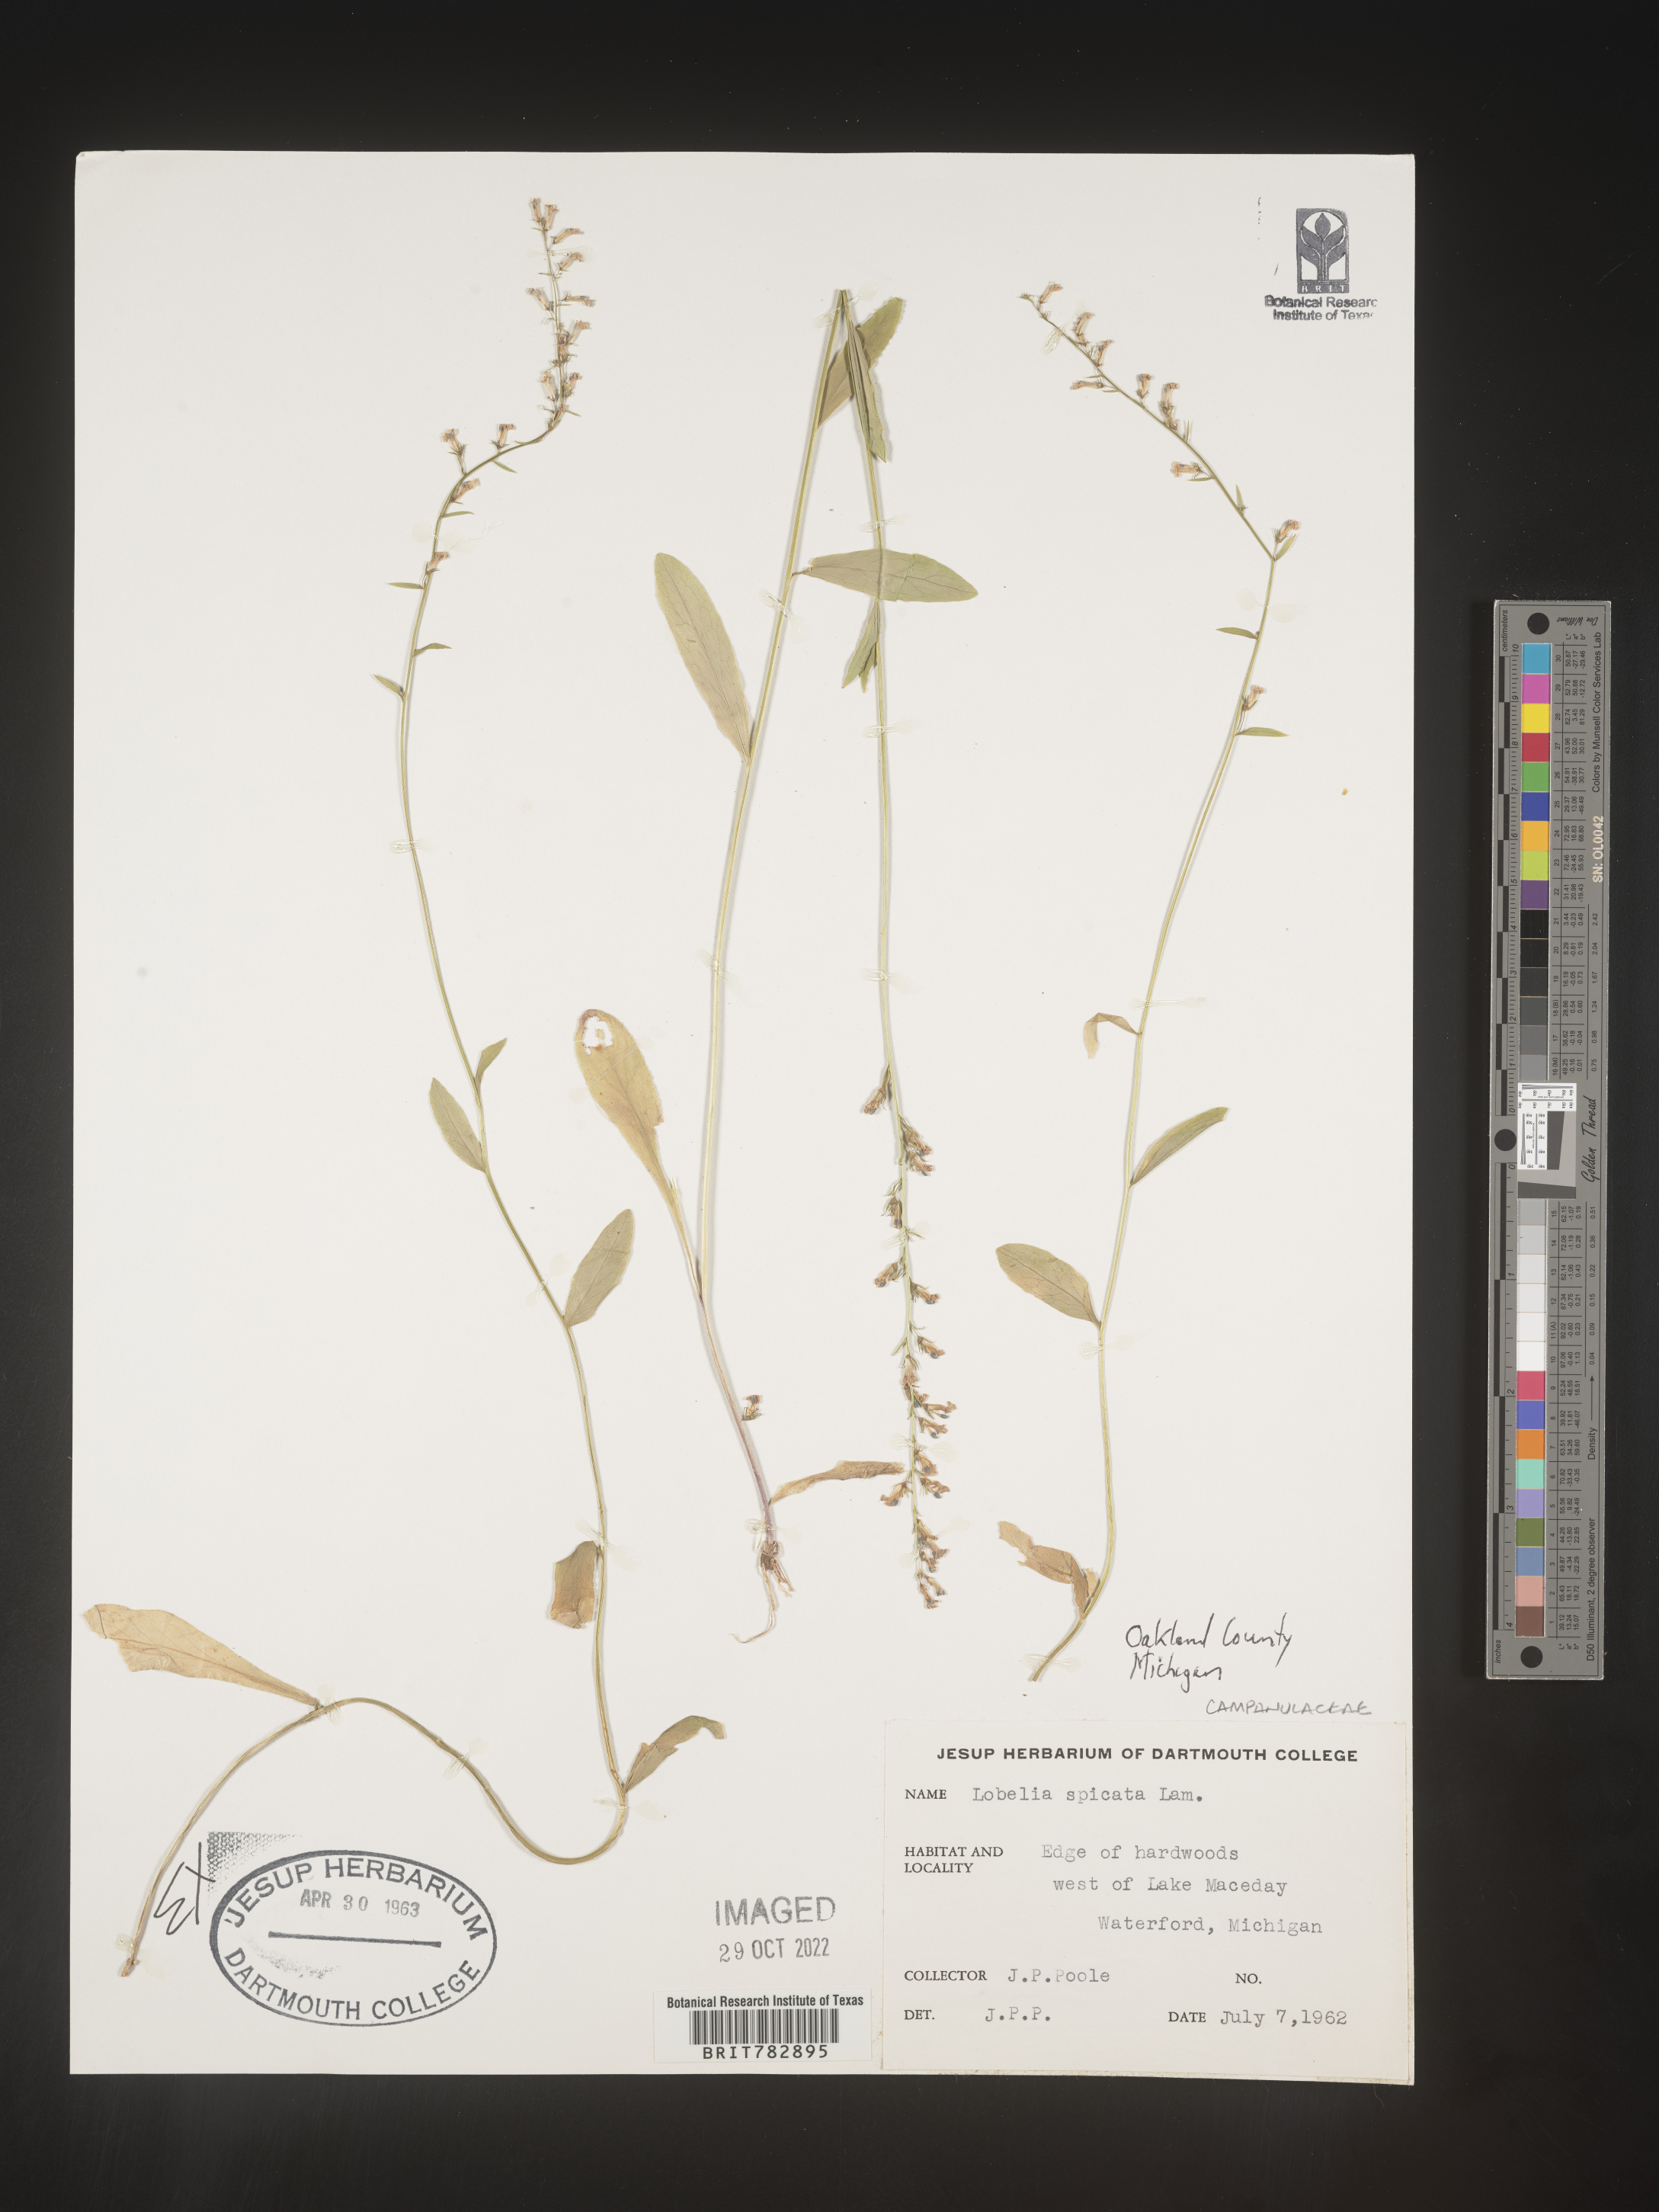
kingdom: Plantae
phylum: Tracheophyta
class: Magnoliopsida
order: Asterales
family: Campanulaceae
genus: Lobelia
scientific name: Lobelia spicata
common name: Pale-spike lobelia
